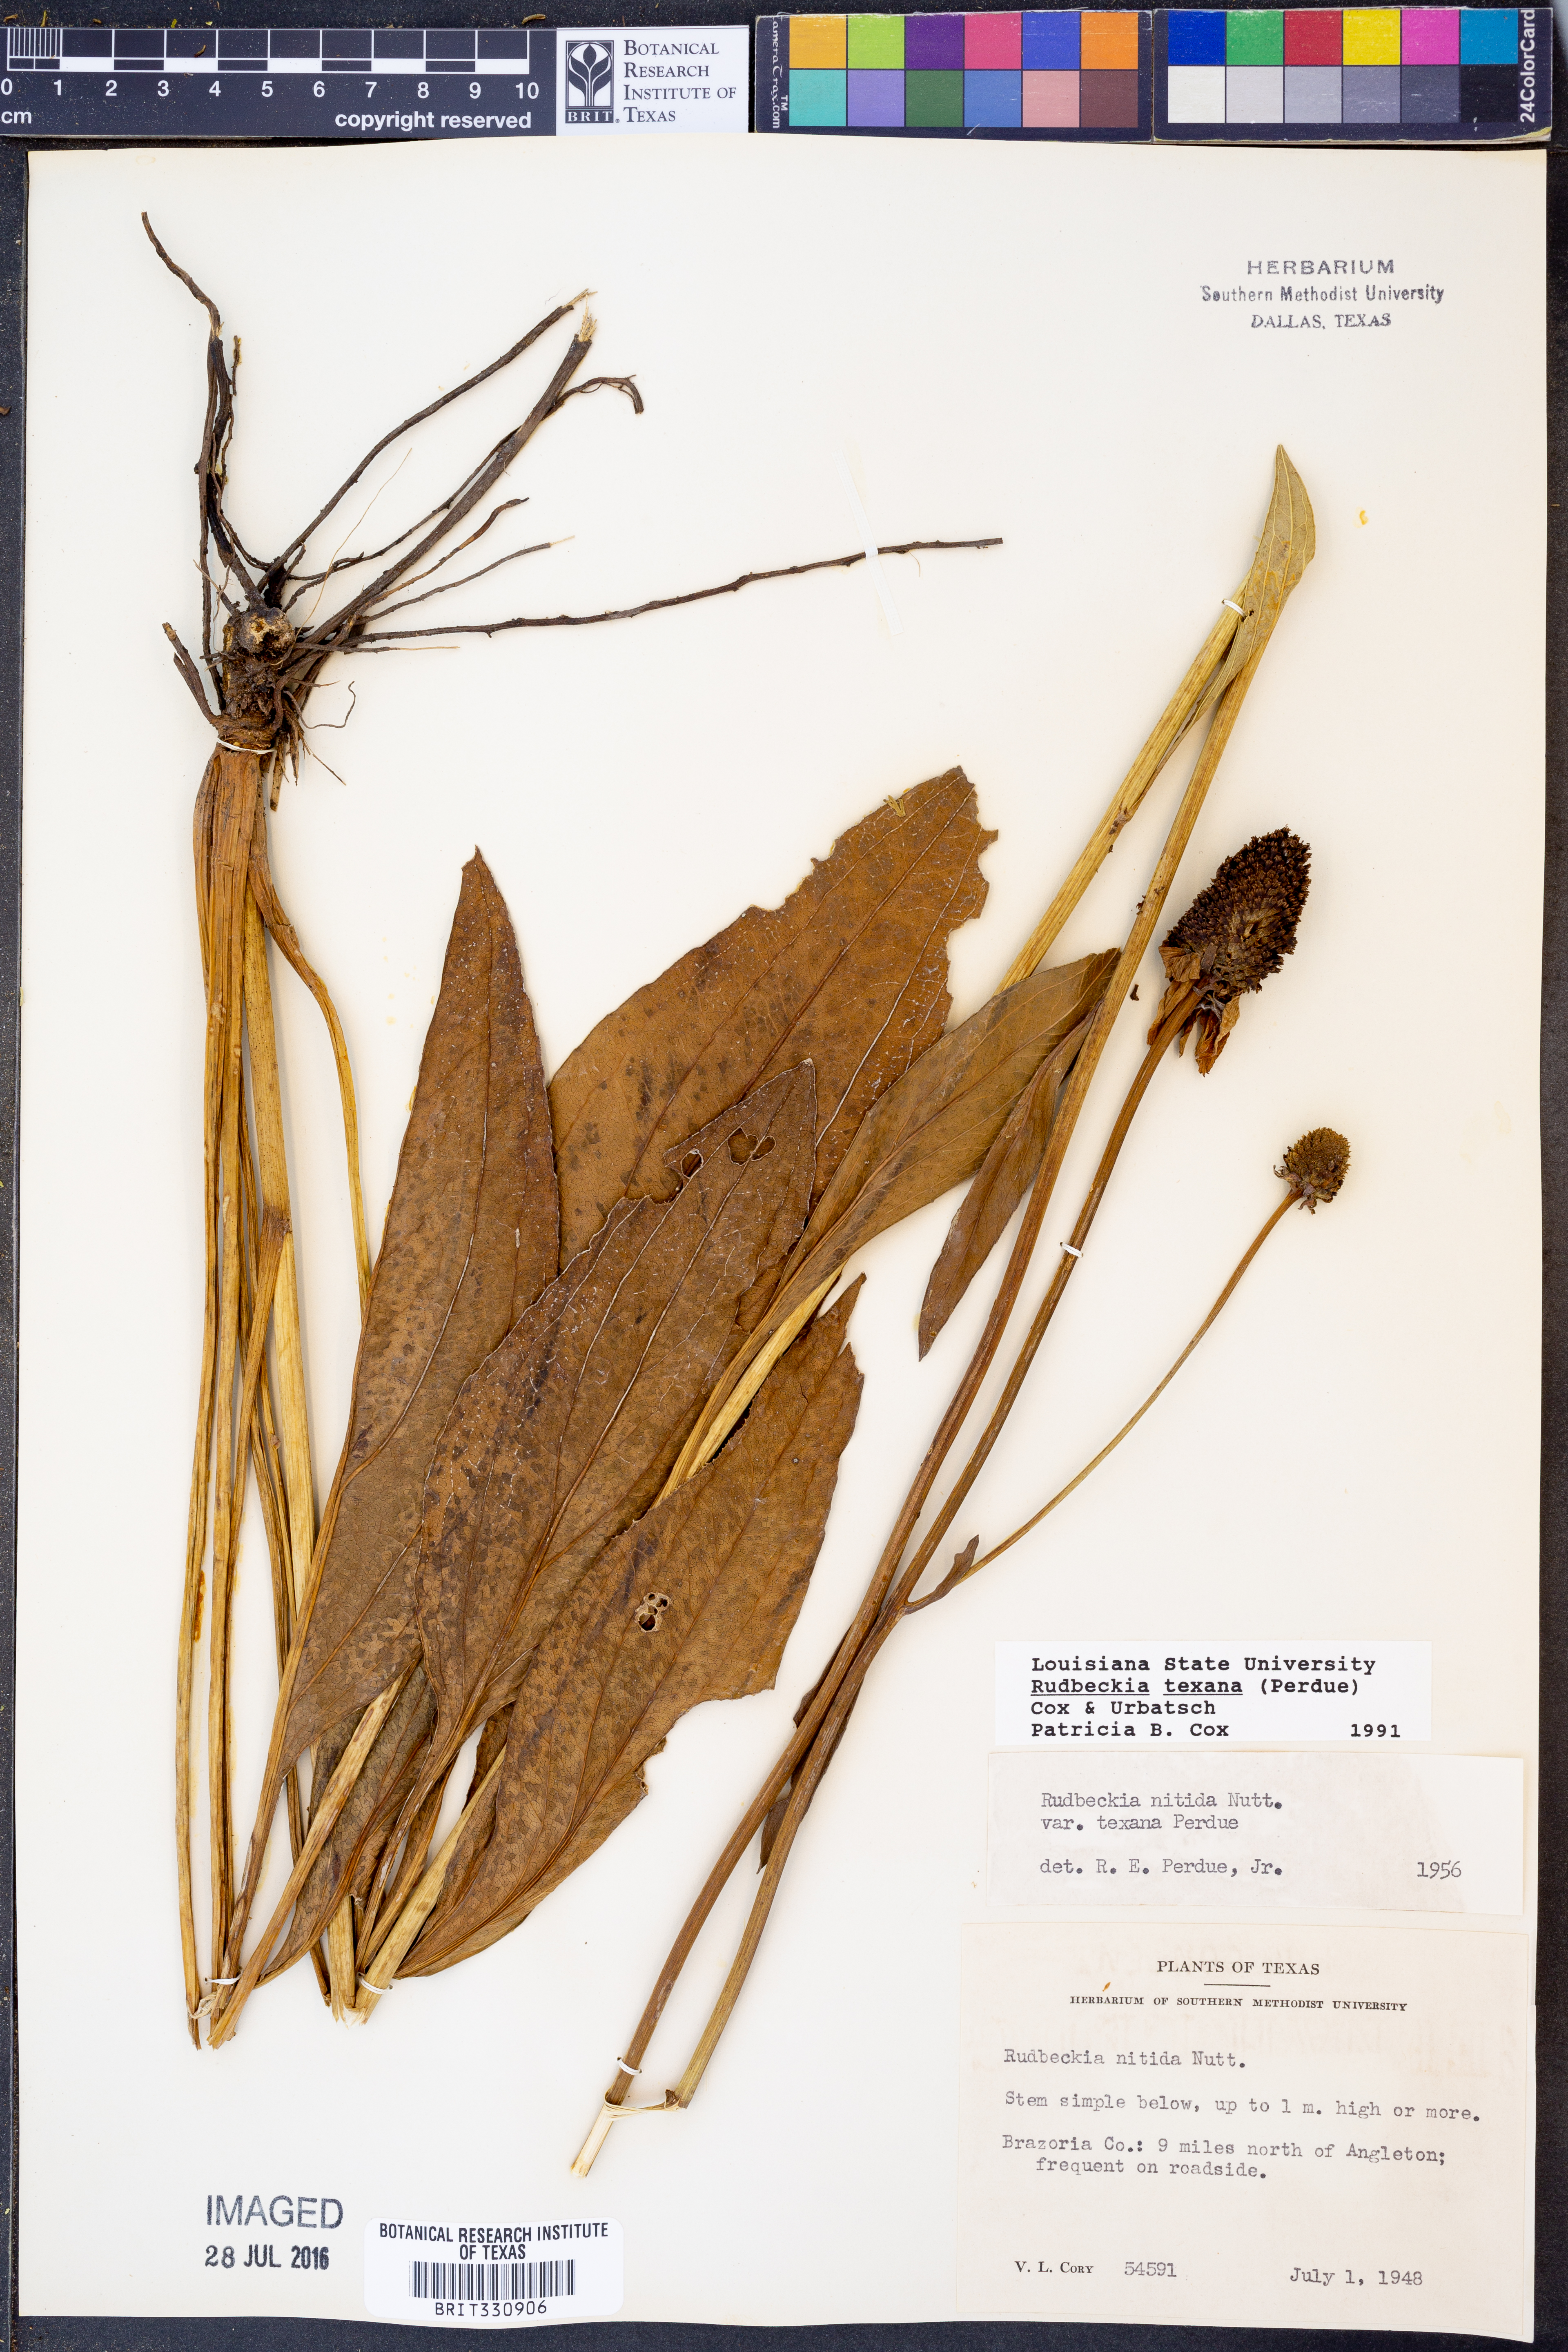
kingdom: Plantae
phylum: Tracheophyta
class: Magnoliopsida
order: Asterales
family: Asteraceae
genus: Rudbeckia
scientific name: Rudbeckia texana
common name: Texas coneflower
